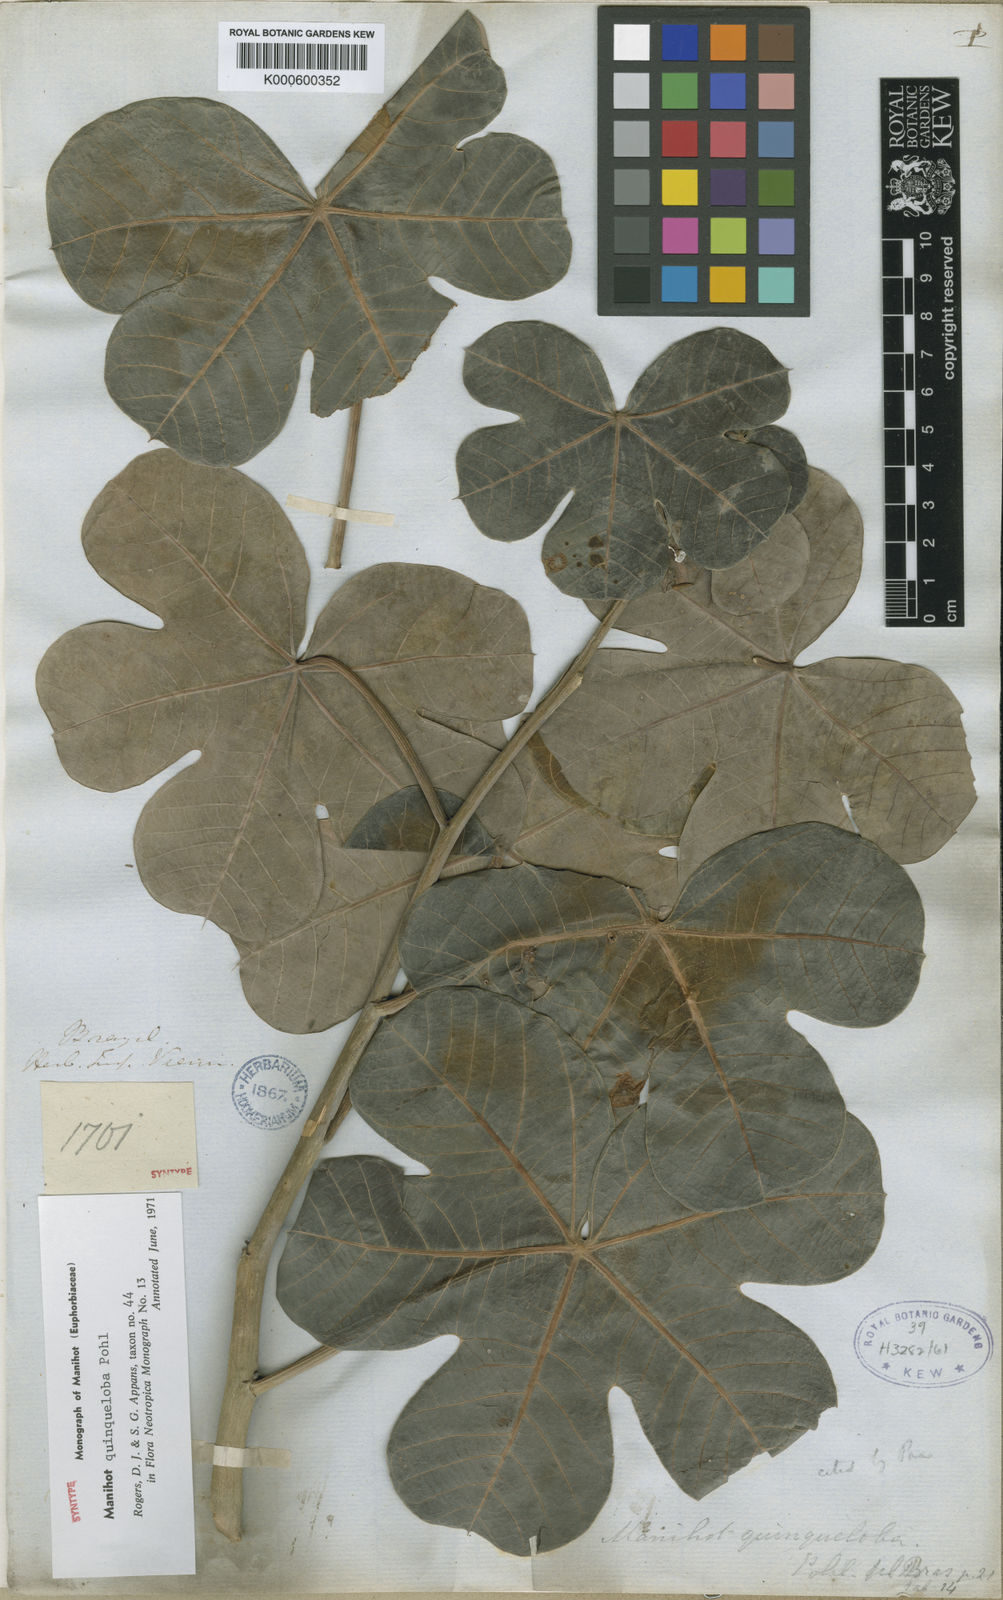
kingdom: Plantae
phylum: Tracheophyta
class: Magnoliopsida
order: Malpighiales
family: Euphorbiaceae
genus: Manihot
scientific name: Manihot quinqueloba
